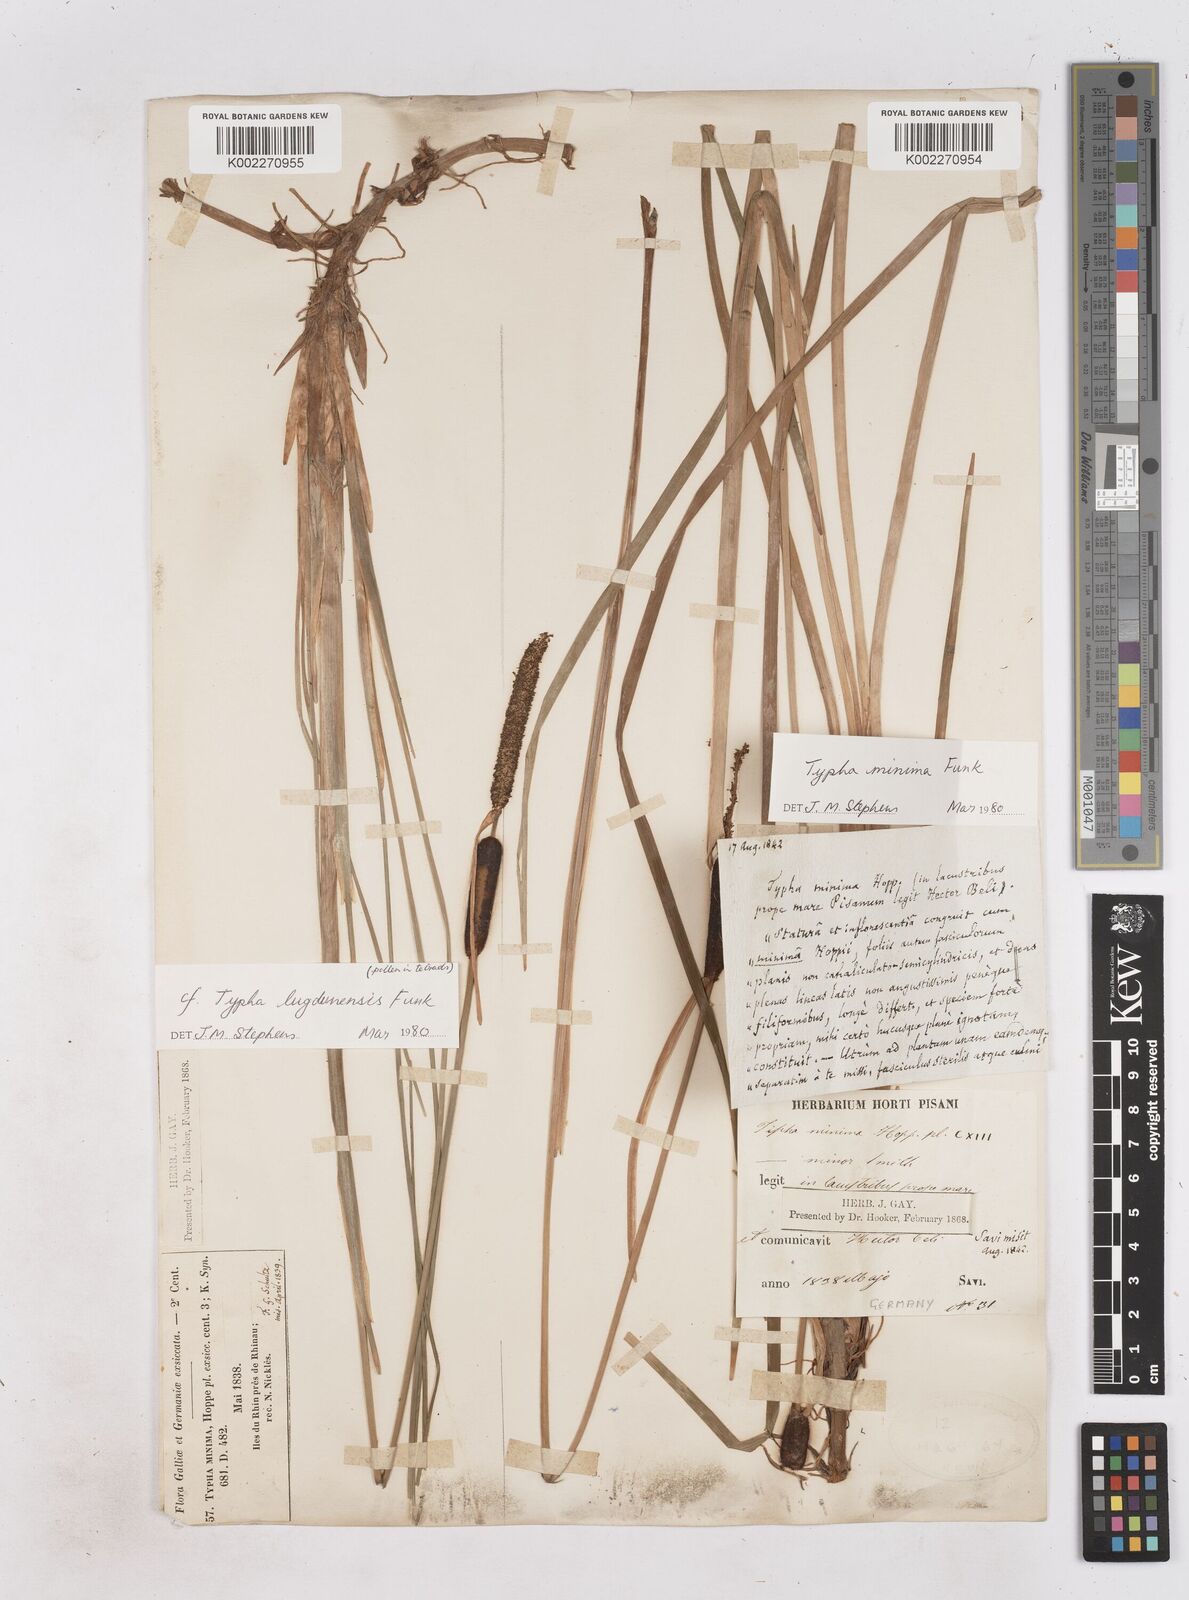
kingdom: Plantae
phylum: Tracheophyta
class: Liliopsida
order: Poales
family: Typhaceae
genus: Typha
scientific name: Typha lugdunensis
